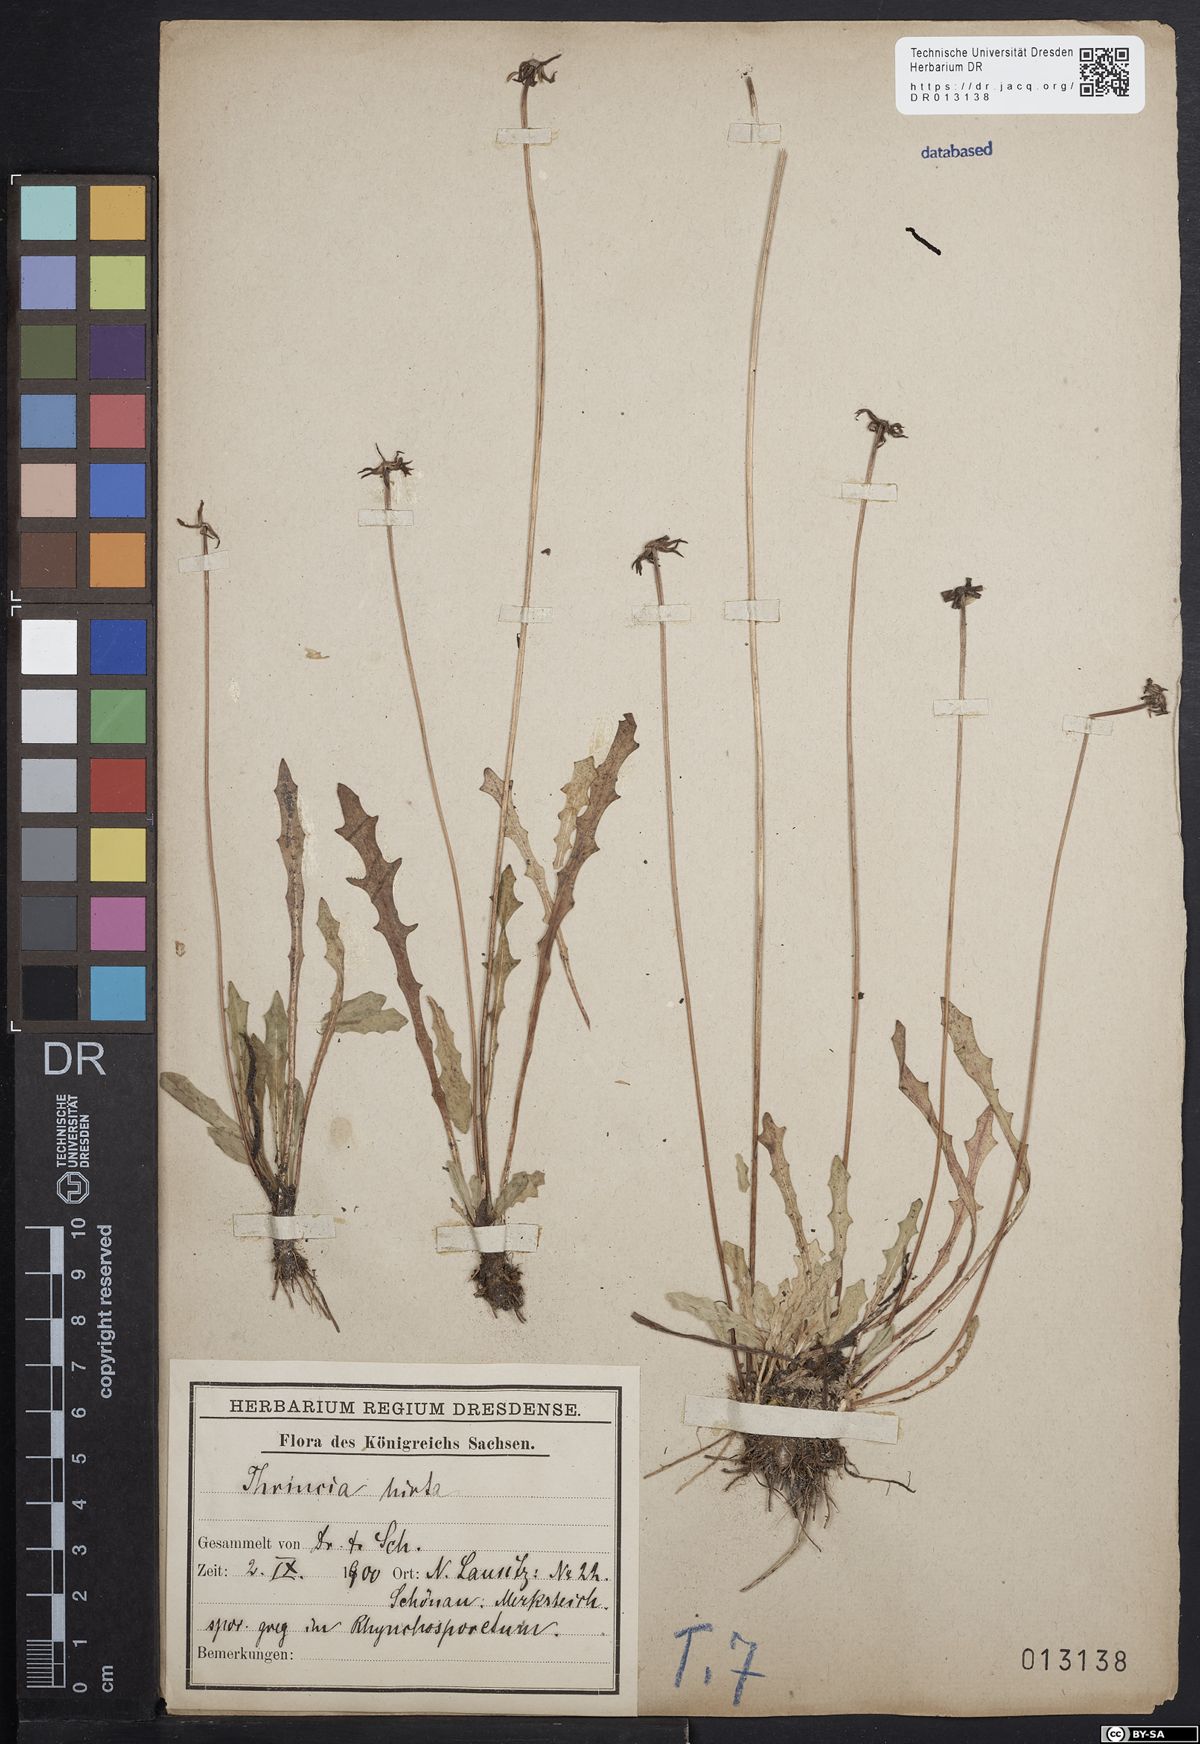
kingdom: Plantae
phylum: Tracheophyta
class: Magnoliopsida
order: Asterales
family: Asteraceae
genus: Thrincia
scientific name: Thrincia saxatilis
